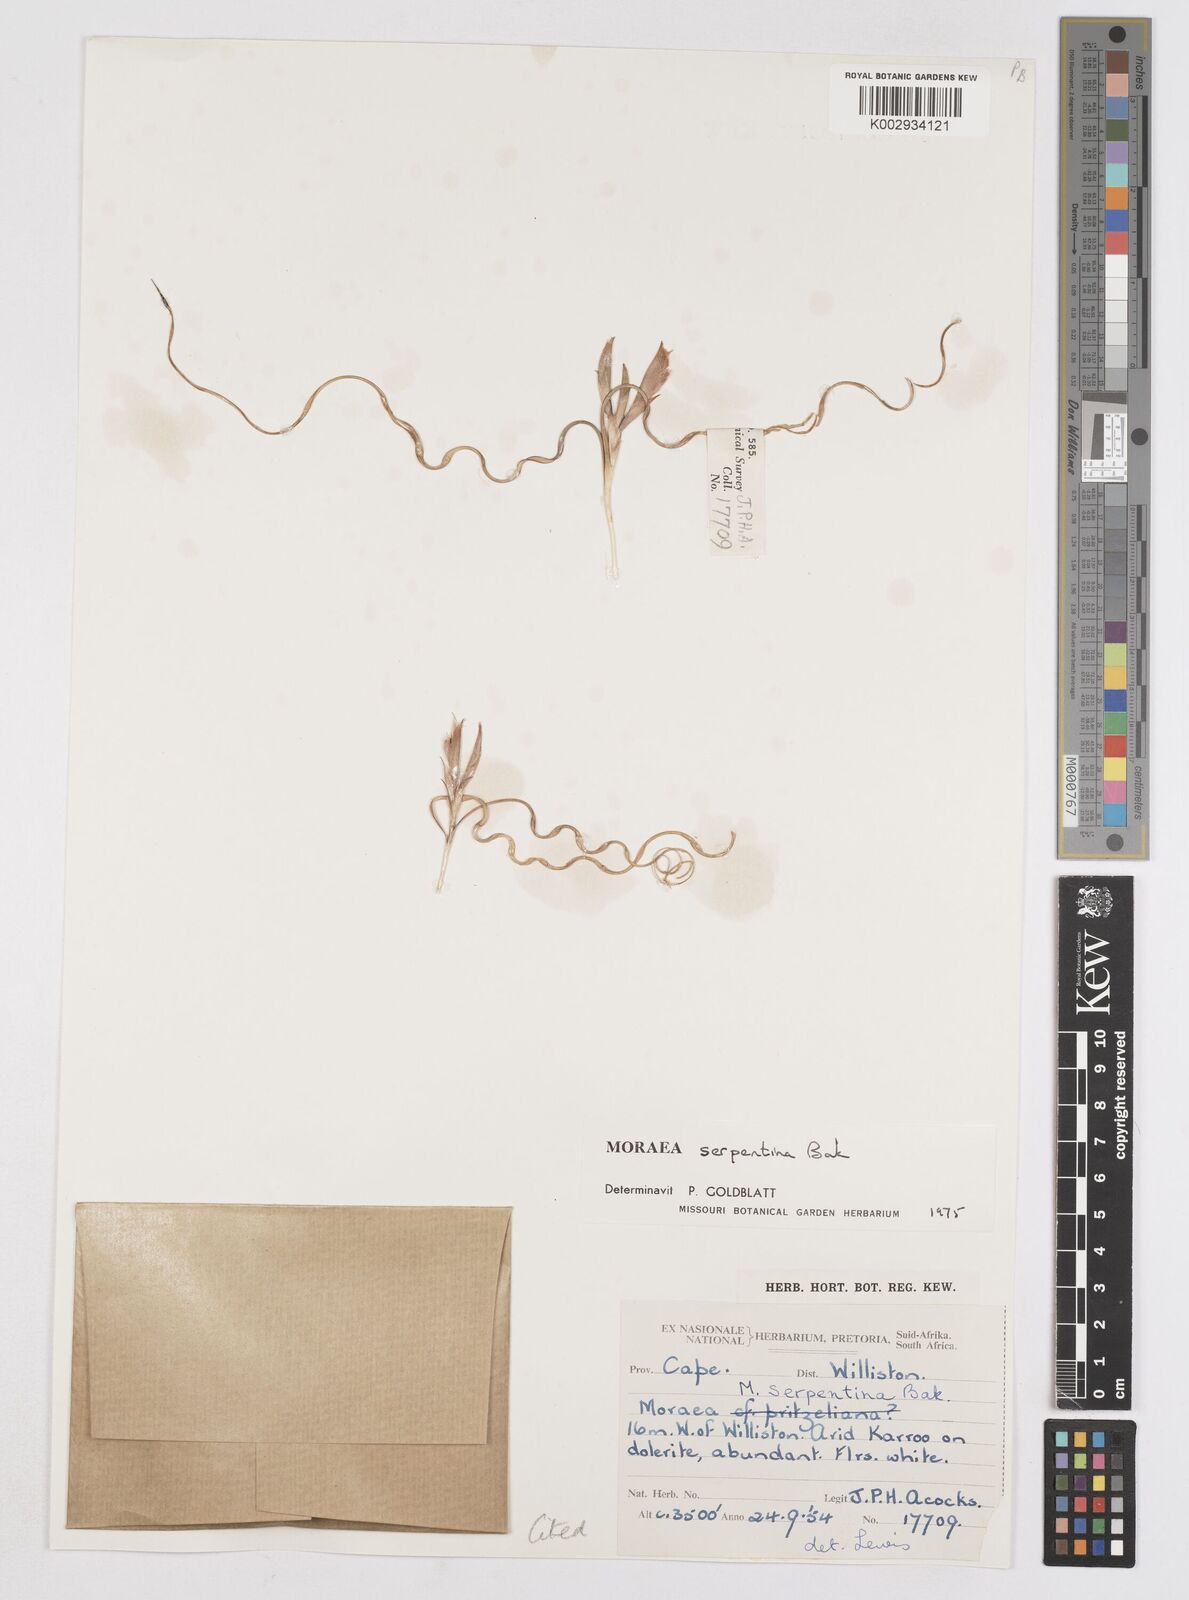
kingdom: Plantae
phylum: Tracheophyta
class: Liliopsida
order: Asparagales
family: Iridaceae
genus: Moraea
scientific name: Moraea serpentina
